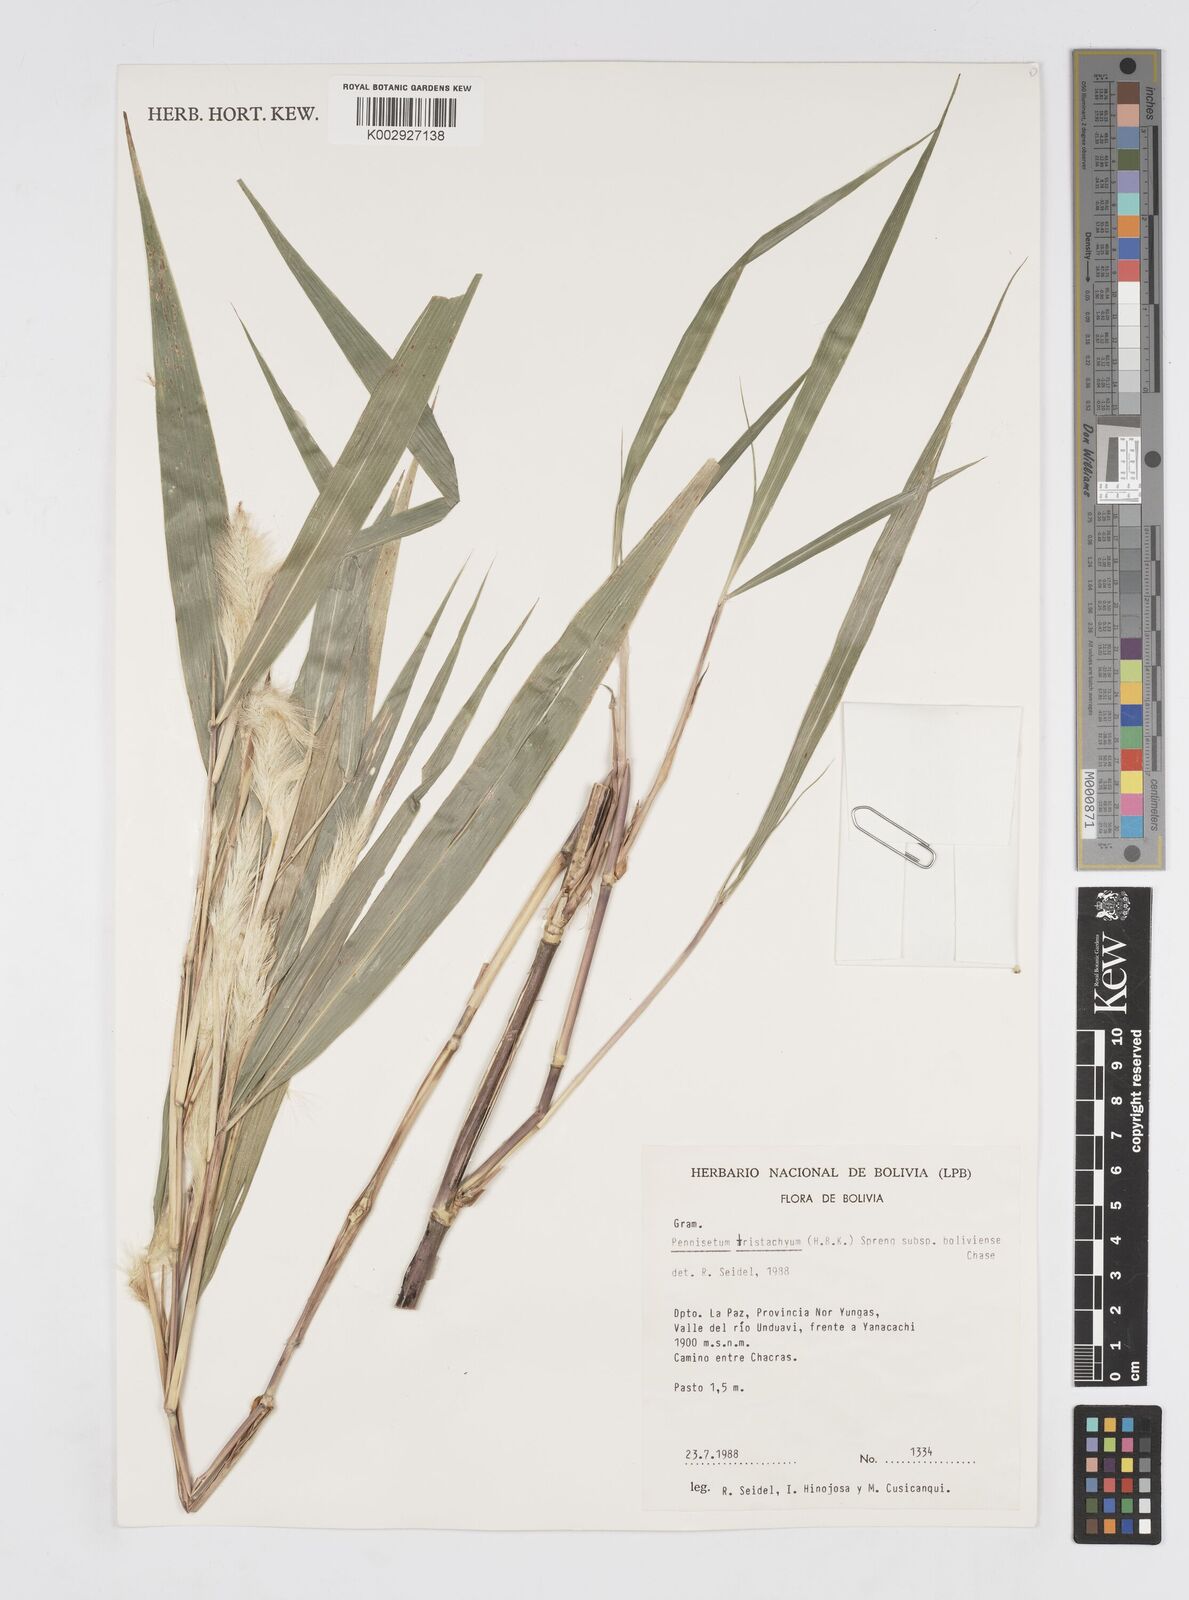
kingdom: Plantae
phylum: Tracheophyta
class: Liliopsida
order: Poales
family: Poaceae
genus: Cenchrus
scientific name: Cenchrus tristachyus
